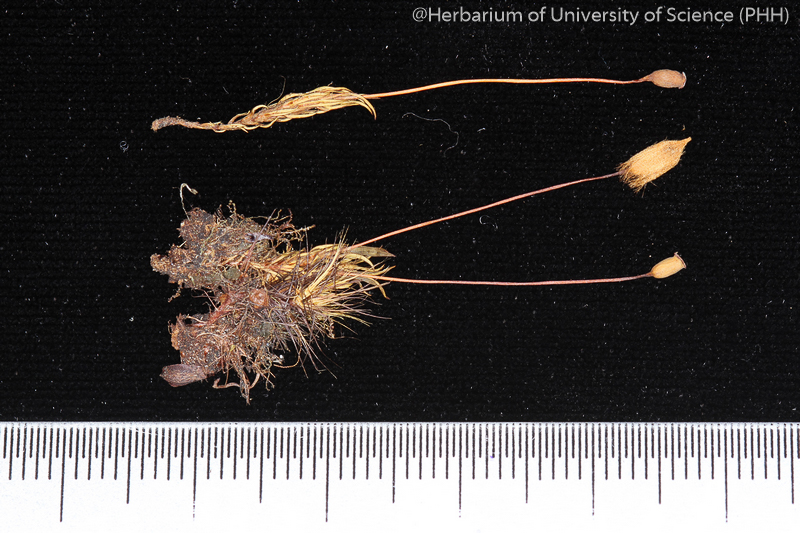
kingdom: Plantae
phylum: Bryophyta
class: Polytrichopsida
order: Polytrichales
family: Polytrichaceae
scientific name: Polytrichaceae
